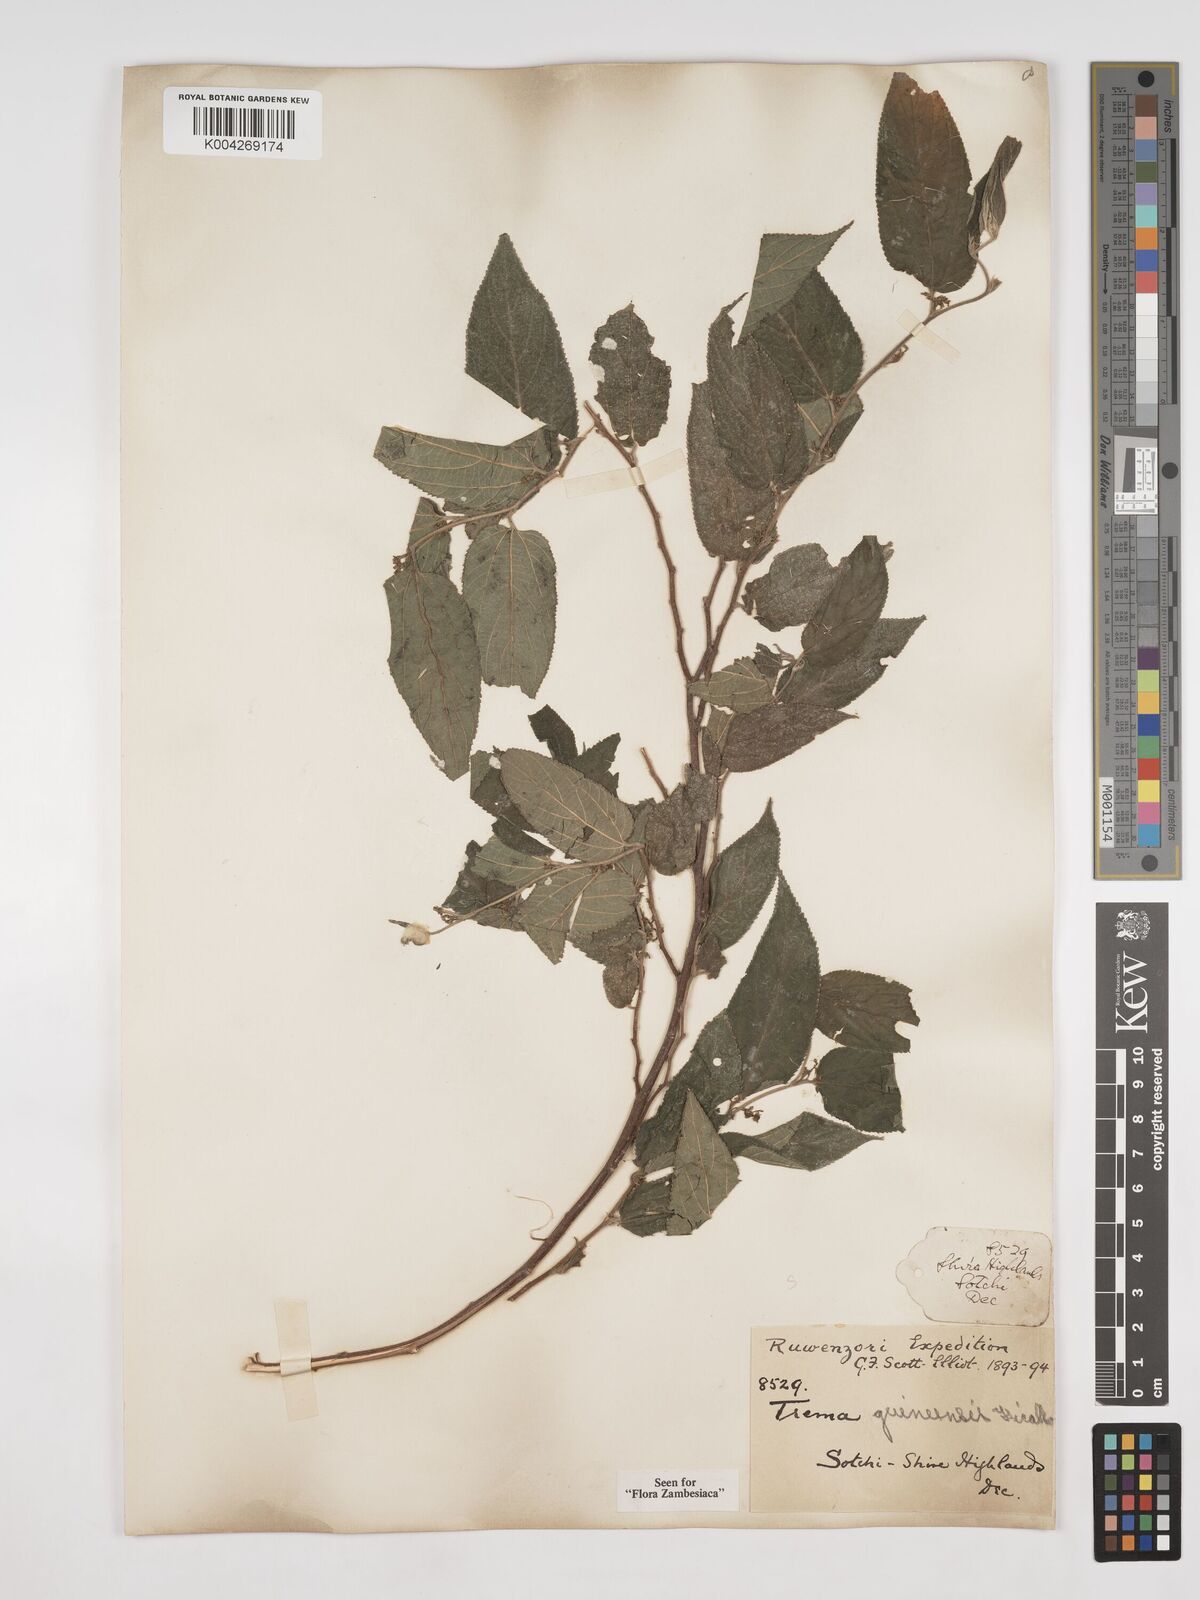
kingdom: Plantae
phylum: Tracheophyta
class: Magnoliopsida
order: Rosales
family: Cannabaceae
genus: Trema
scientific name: Trema orientale
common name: Indian charcoal tree
